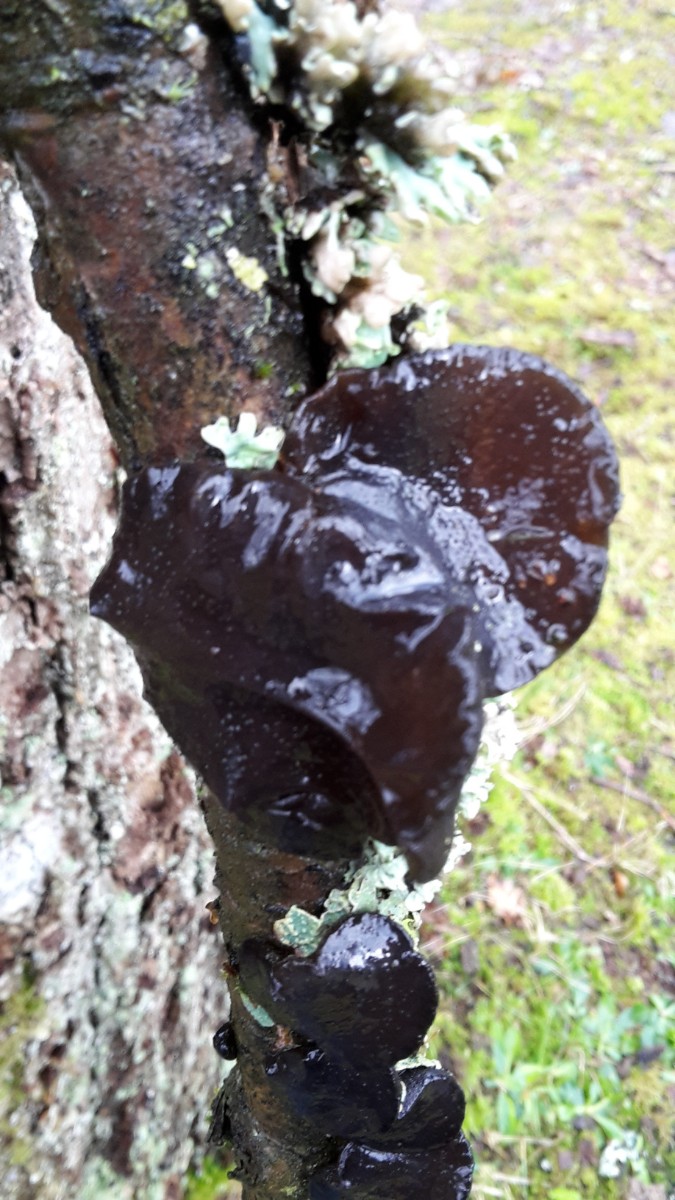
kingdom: Fungi
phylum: Basidiomycota
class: Agaricomycetes
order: Auriculariales
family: Auriculariaceae
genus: Exidia
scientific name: Exidia glandulosa
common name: ege-bævretop
